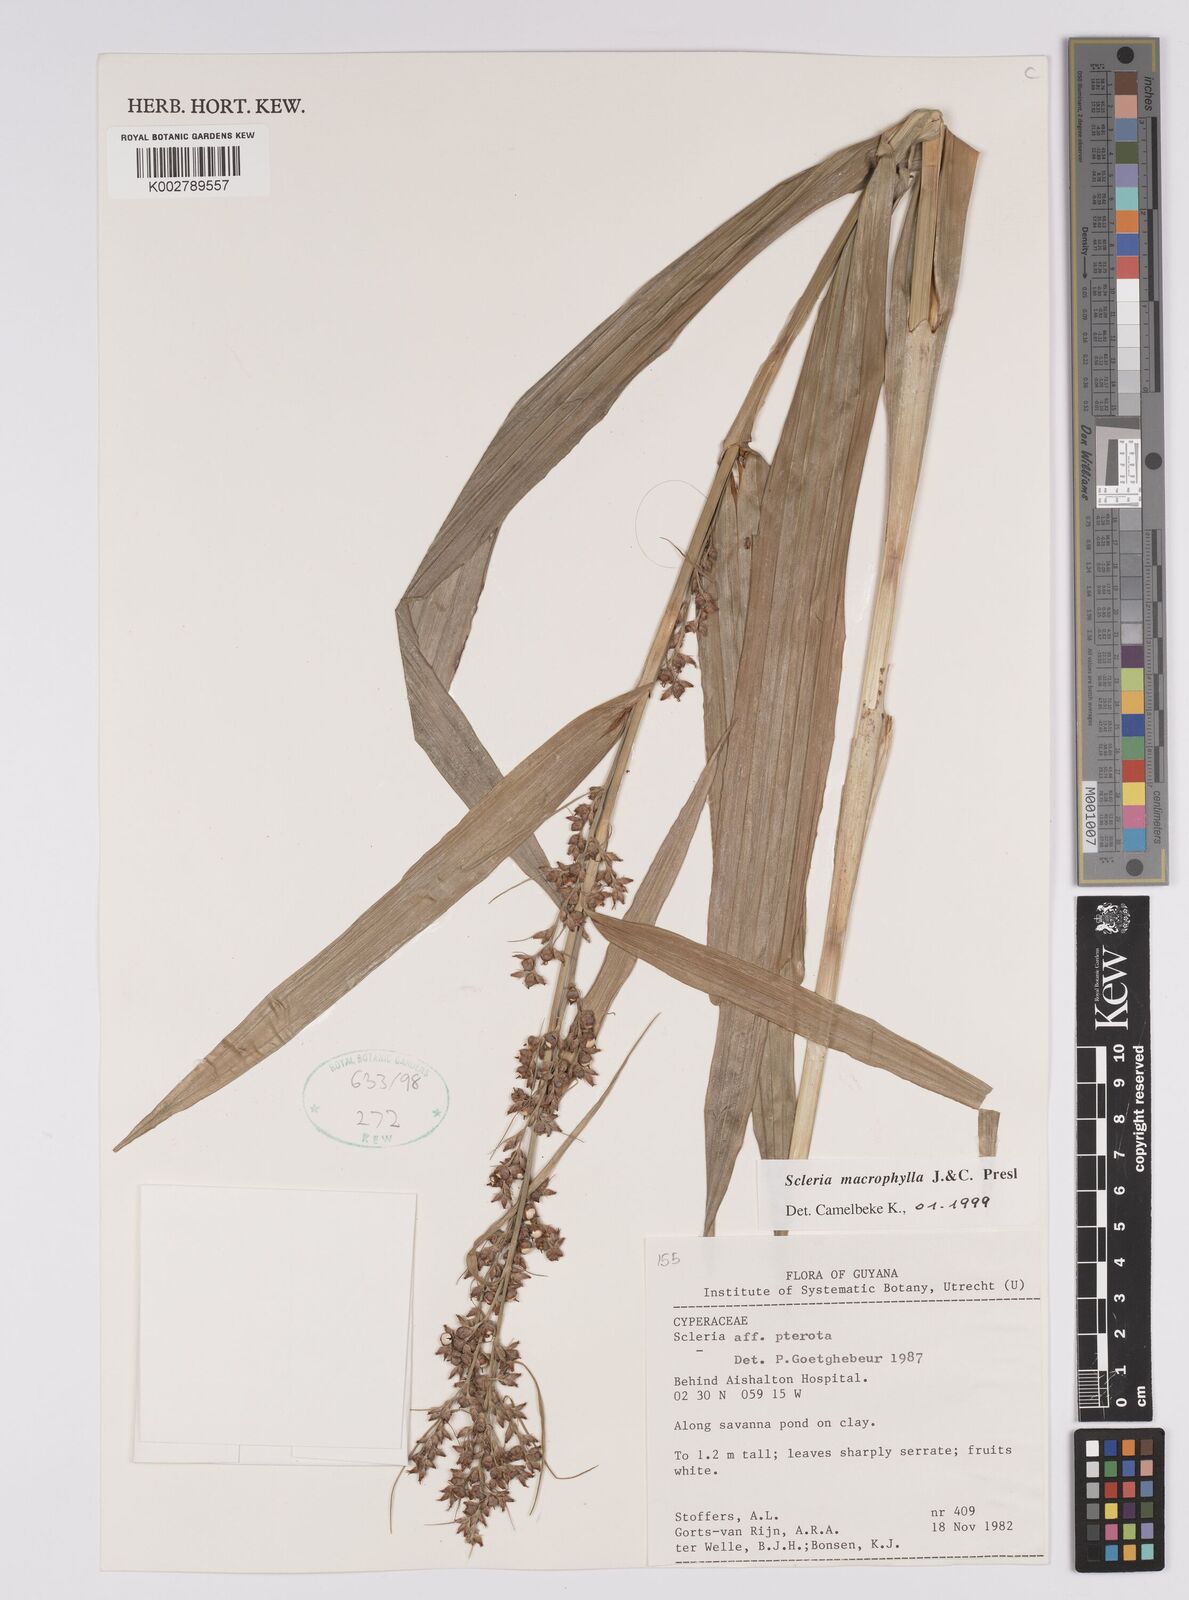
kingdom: Plantae
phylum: Tracheophyta
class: Liliopsida
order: Poales
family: Cyperaceae
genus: Scleria
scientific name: Scleria macrophylla
